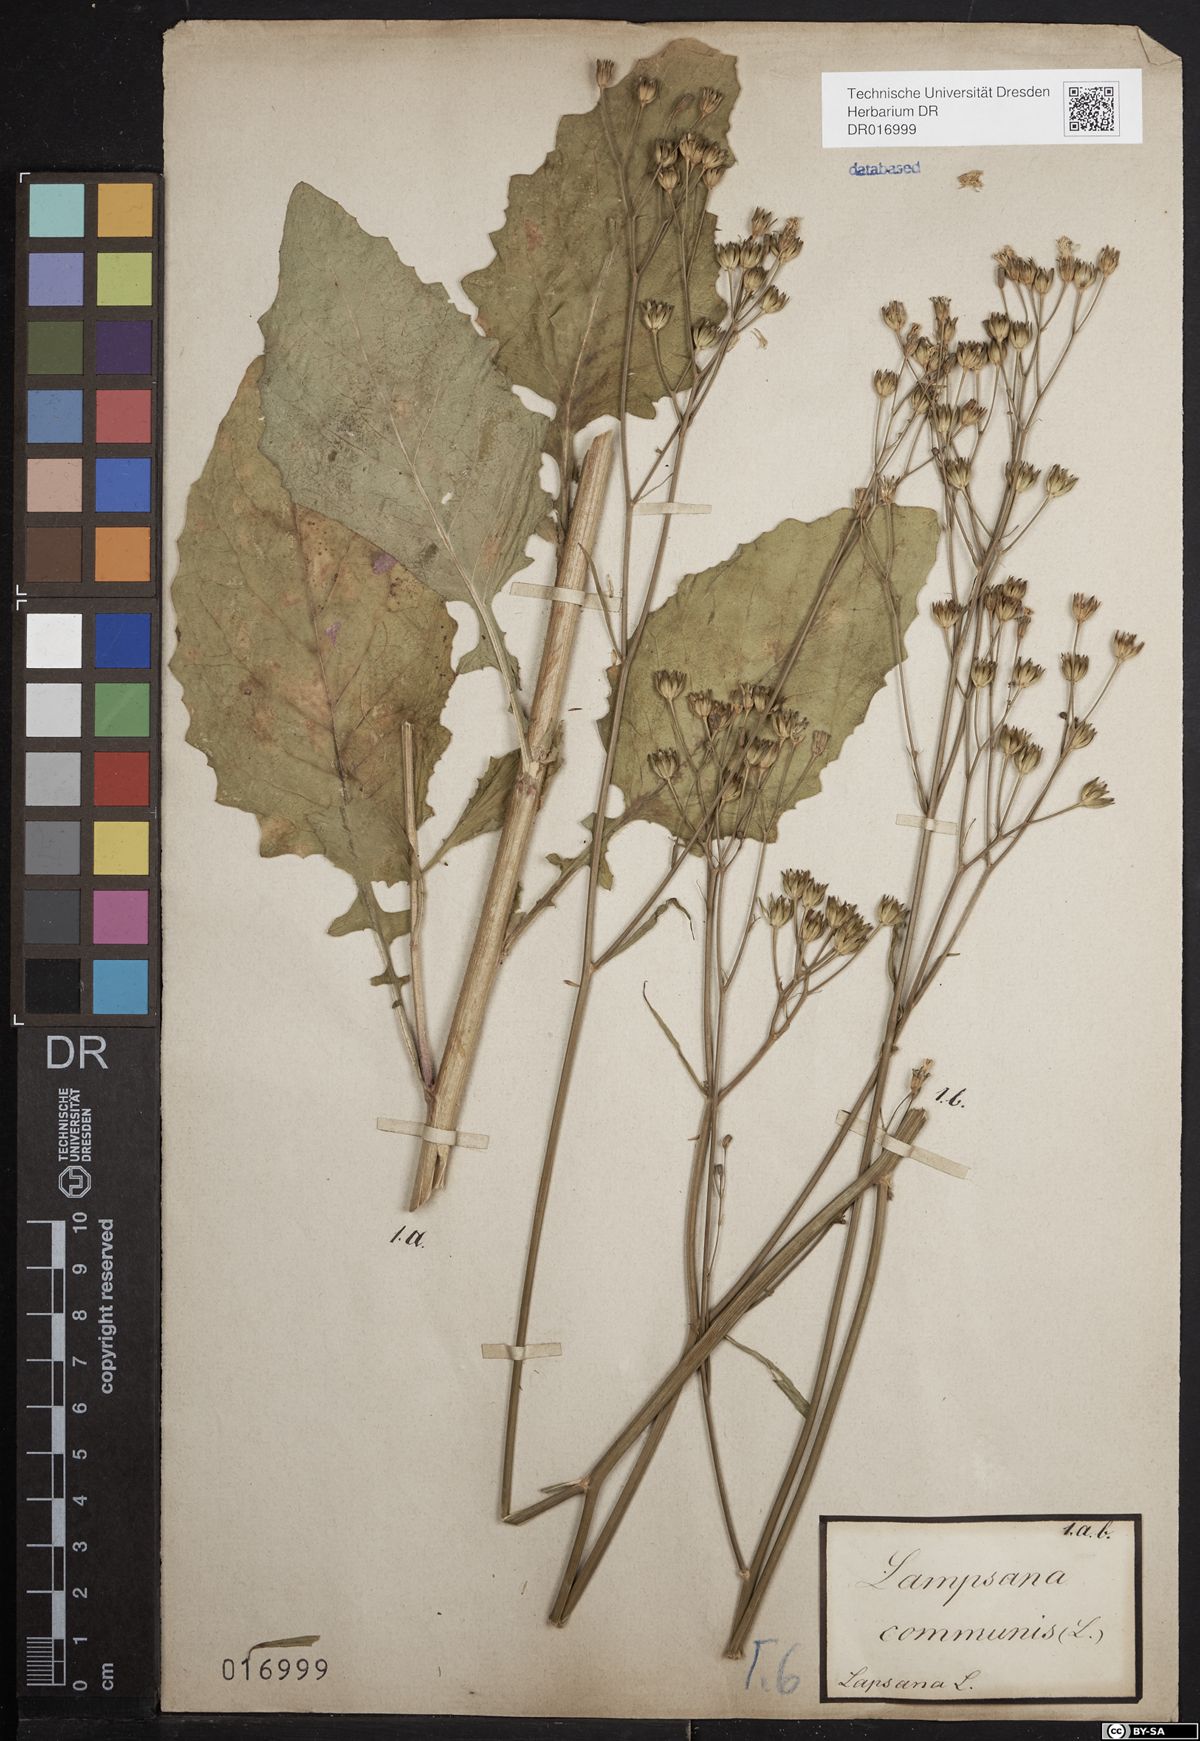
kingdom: Plantae
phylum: Tracheophyta
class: Magnoliopsida
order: Asterales
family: Asteraceae
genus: Lapsana
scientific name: Lapsana communis
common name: Nipplewort
